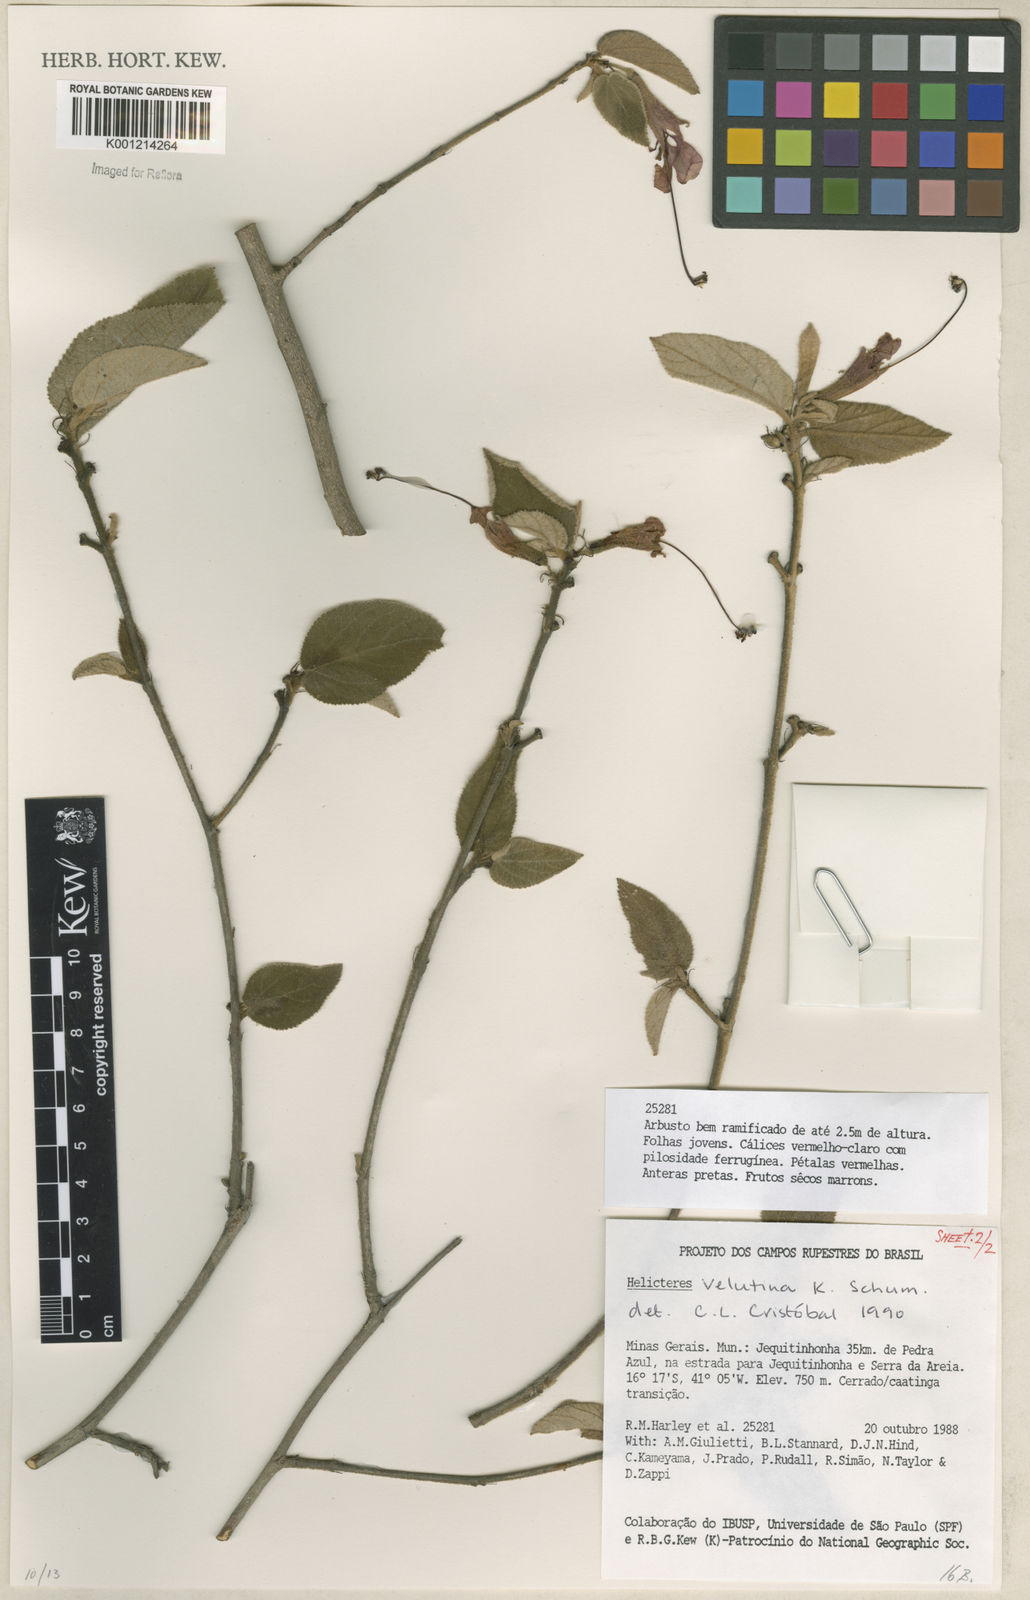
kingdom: Plantae
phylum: Tracheophyta
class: Magnoliopsida
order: Malvales
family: Malvaceae
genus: Helicteres
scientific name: Helicteres velutina
